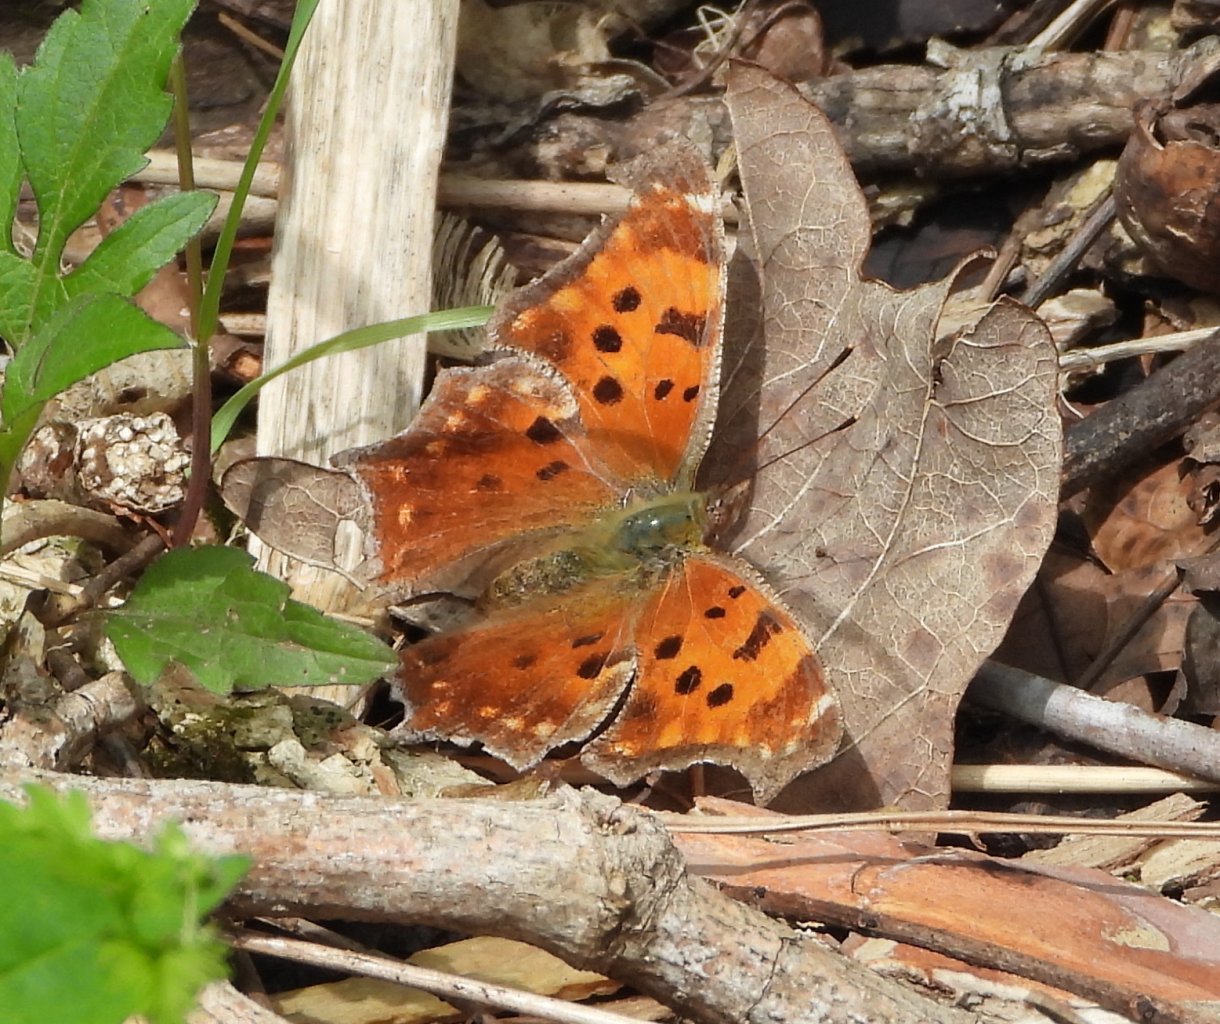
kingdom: Animalia
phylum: Arthropoda
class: Insecta
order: Lepidoptera
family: Nymphalidae
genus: Polygonia
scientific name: Polygonia comma
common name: Eastern Comma
